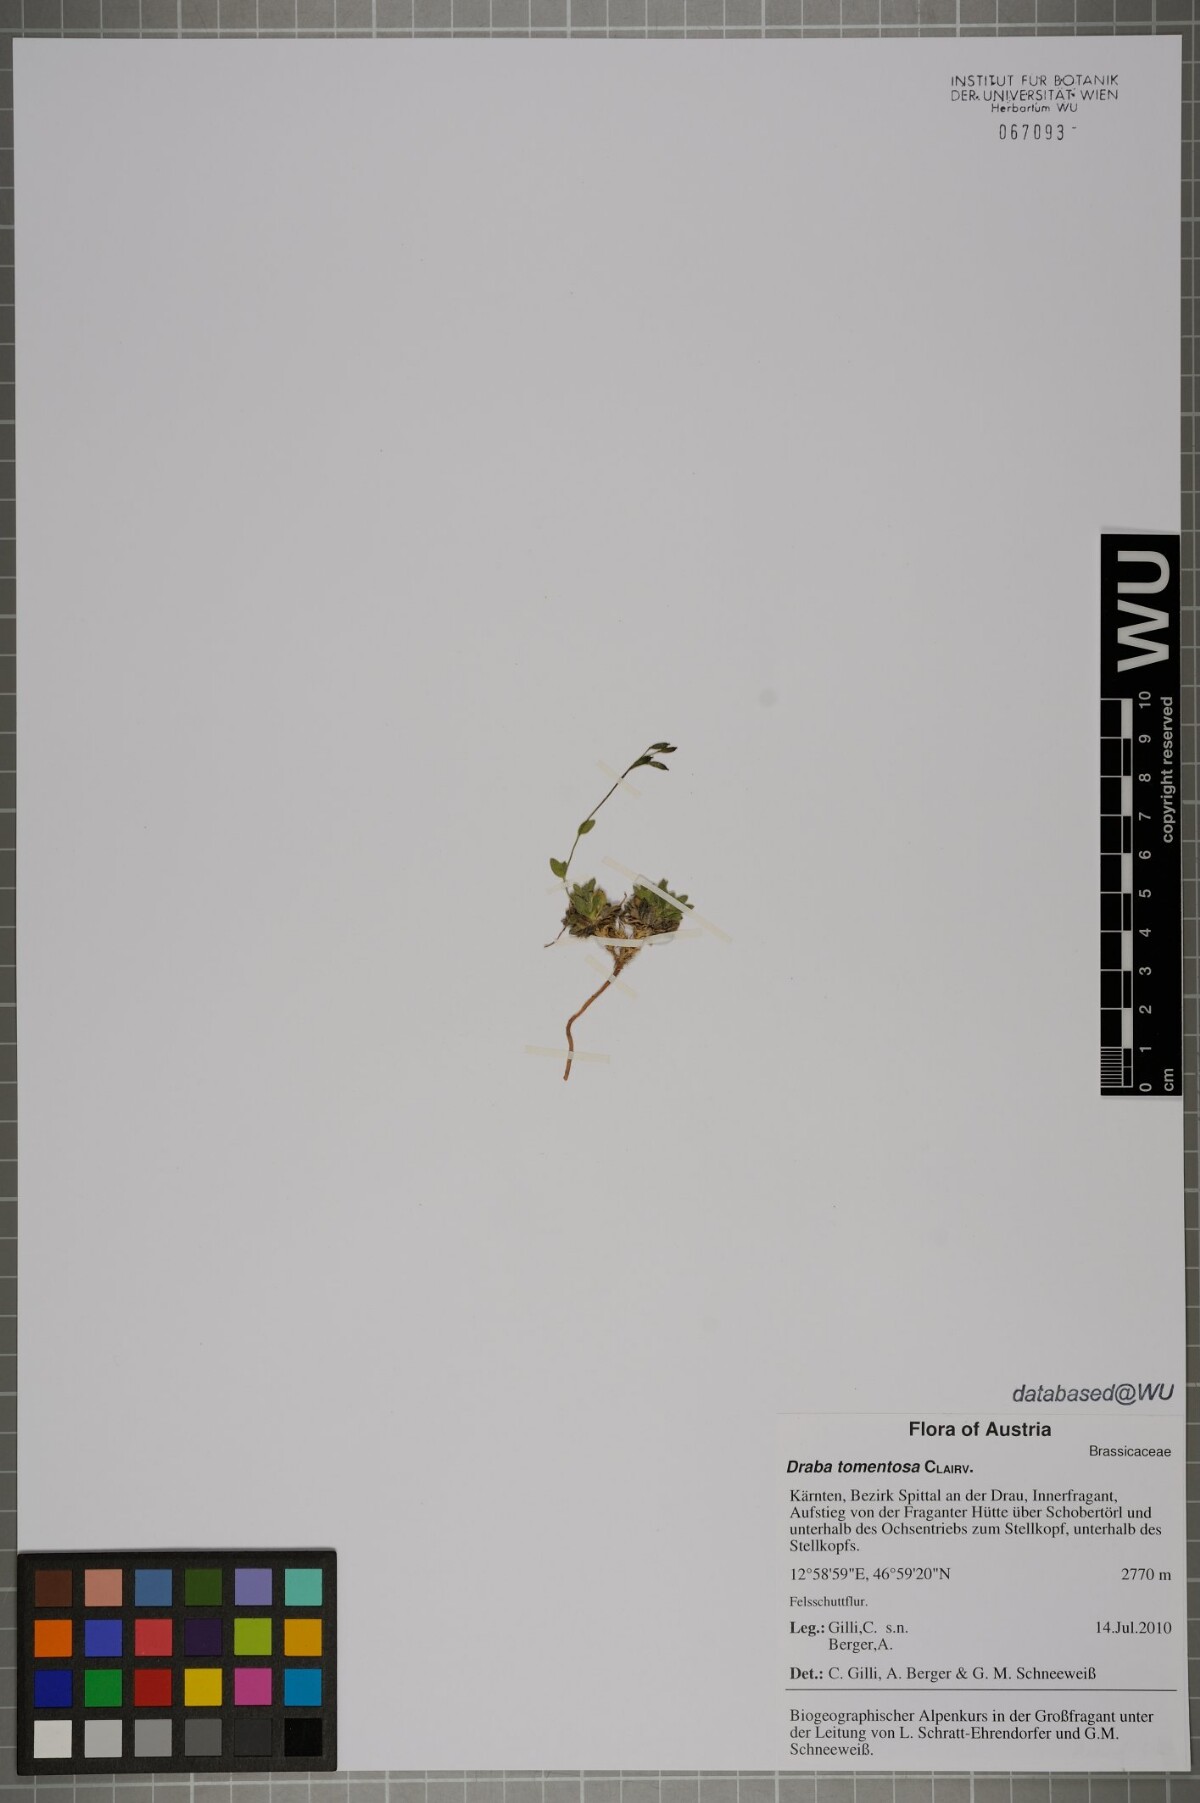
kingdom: Plantae
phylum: Tracheophyta
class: Magnoliopsida
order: Brassicales
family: Brassicaceae
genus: Draba
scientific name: Draba tomentosa
